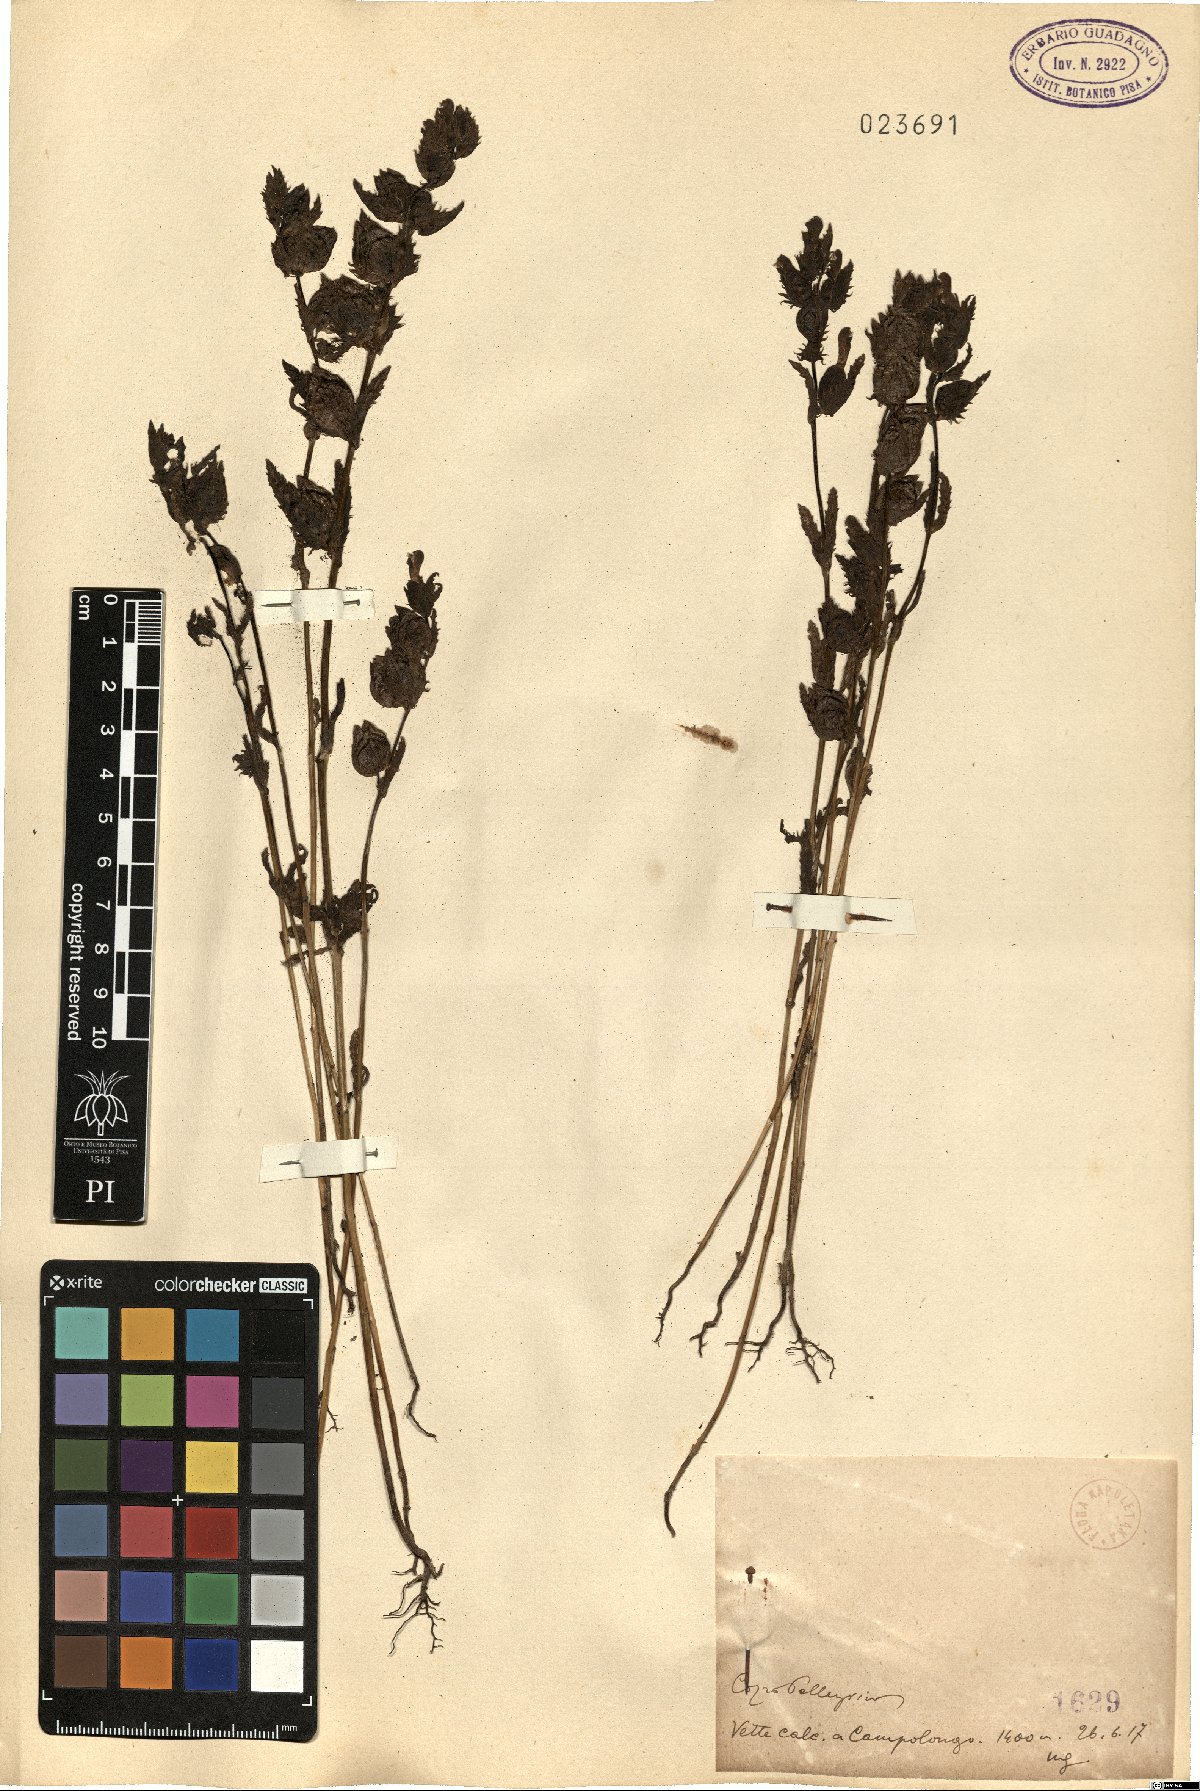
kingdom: Plantae
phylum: Tracheophyta
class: Magnoliopsida
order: Lamiales
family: Orobanchaceae
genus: Rhinanthus
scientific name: Rhinanthus
